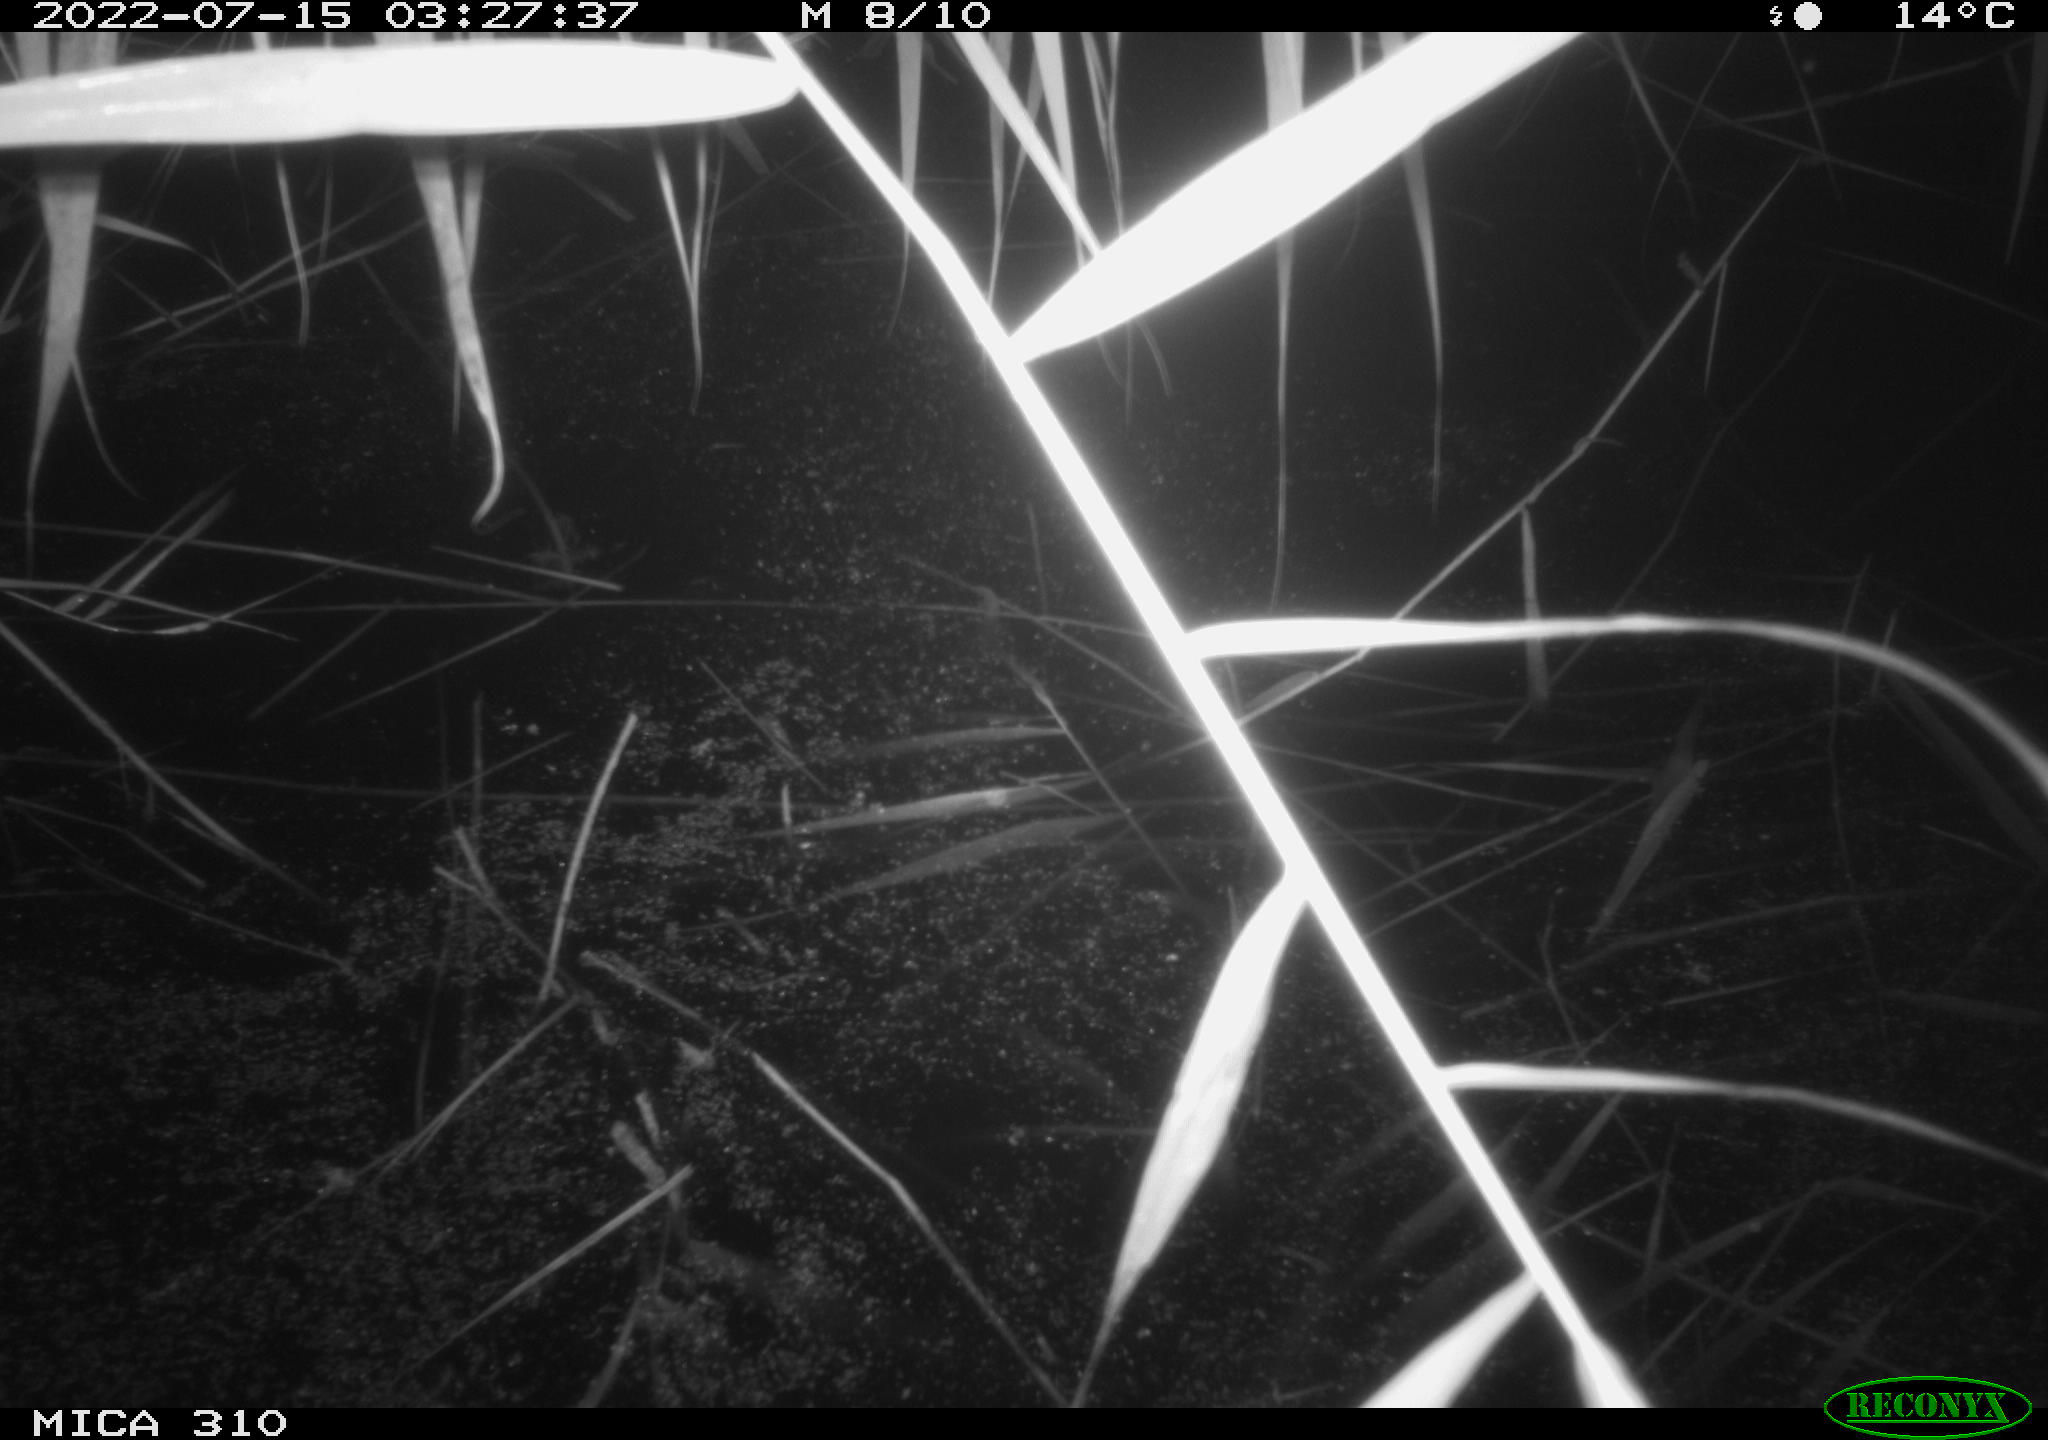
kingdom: Animalia
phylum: Chordata
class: Aves
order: Anseriformes
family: Anatidae
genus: Anas
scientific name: Anas platyrhynchos
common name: Mallard
